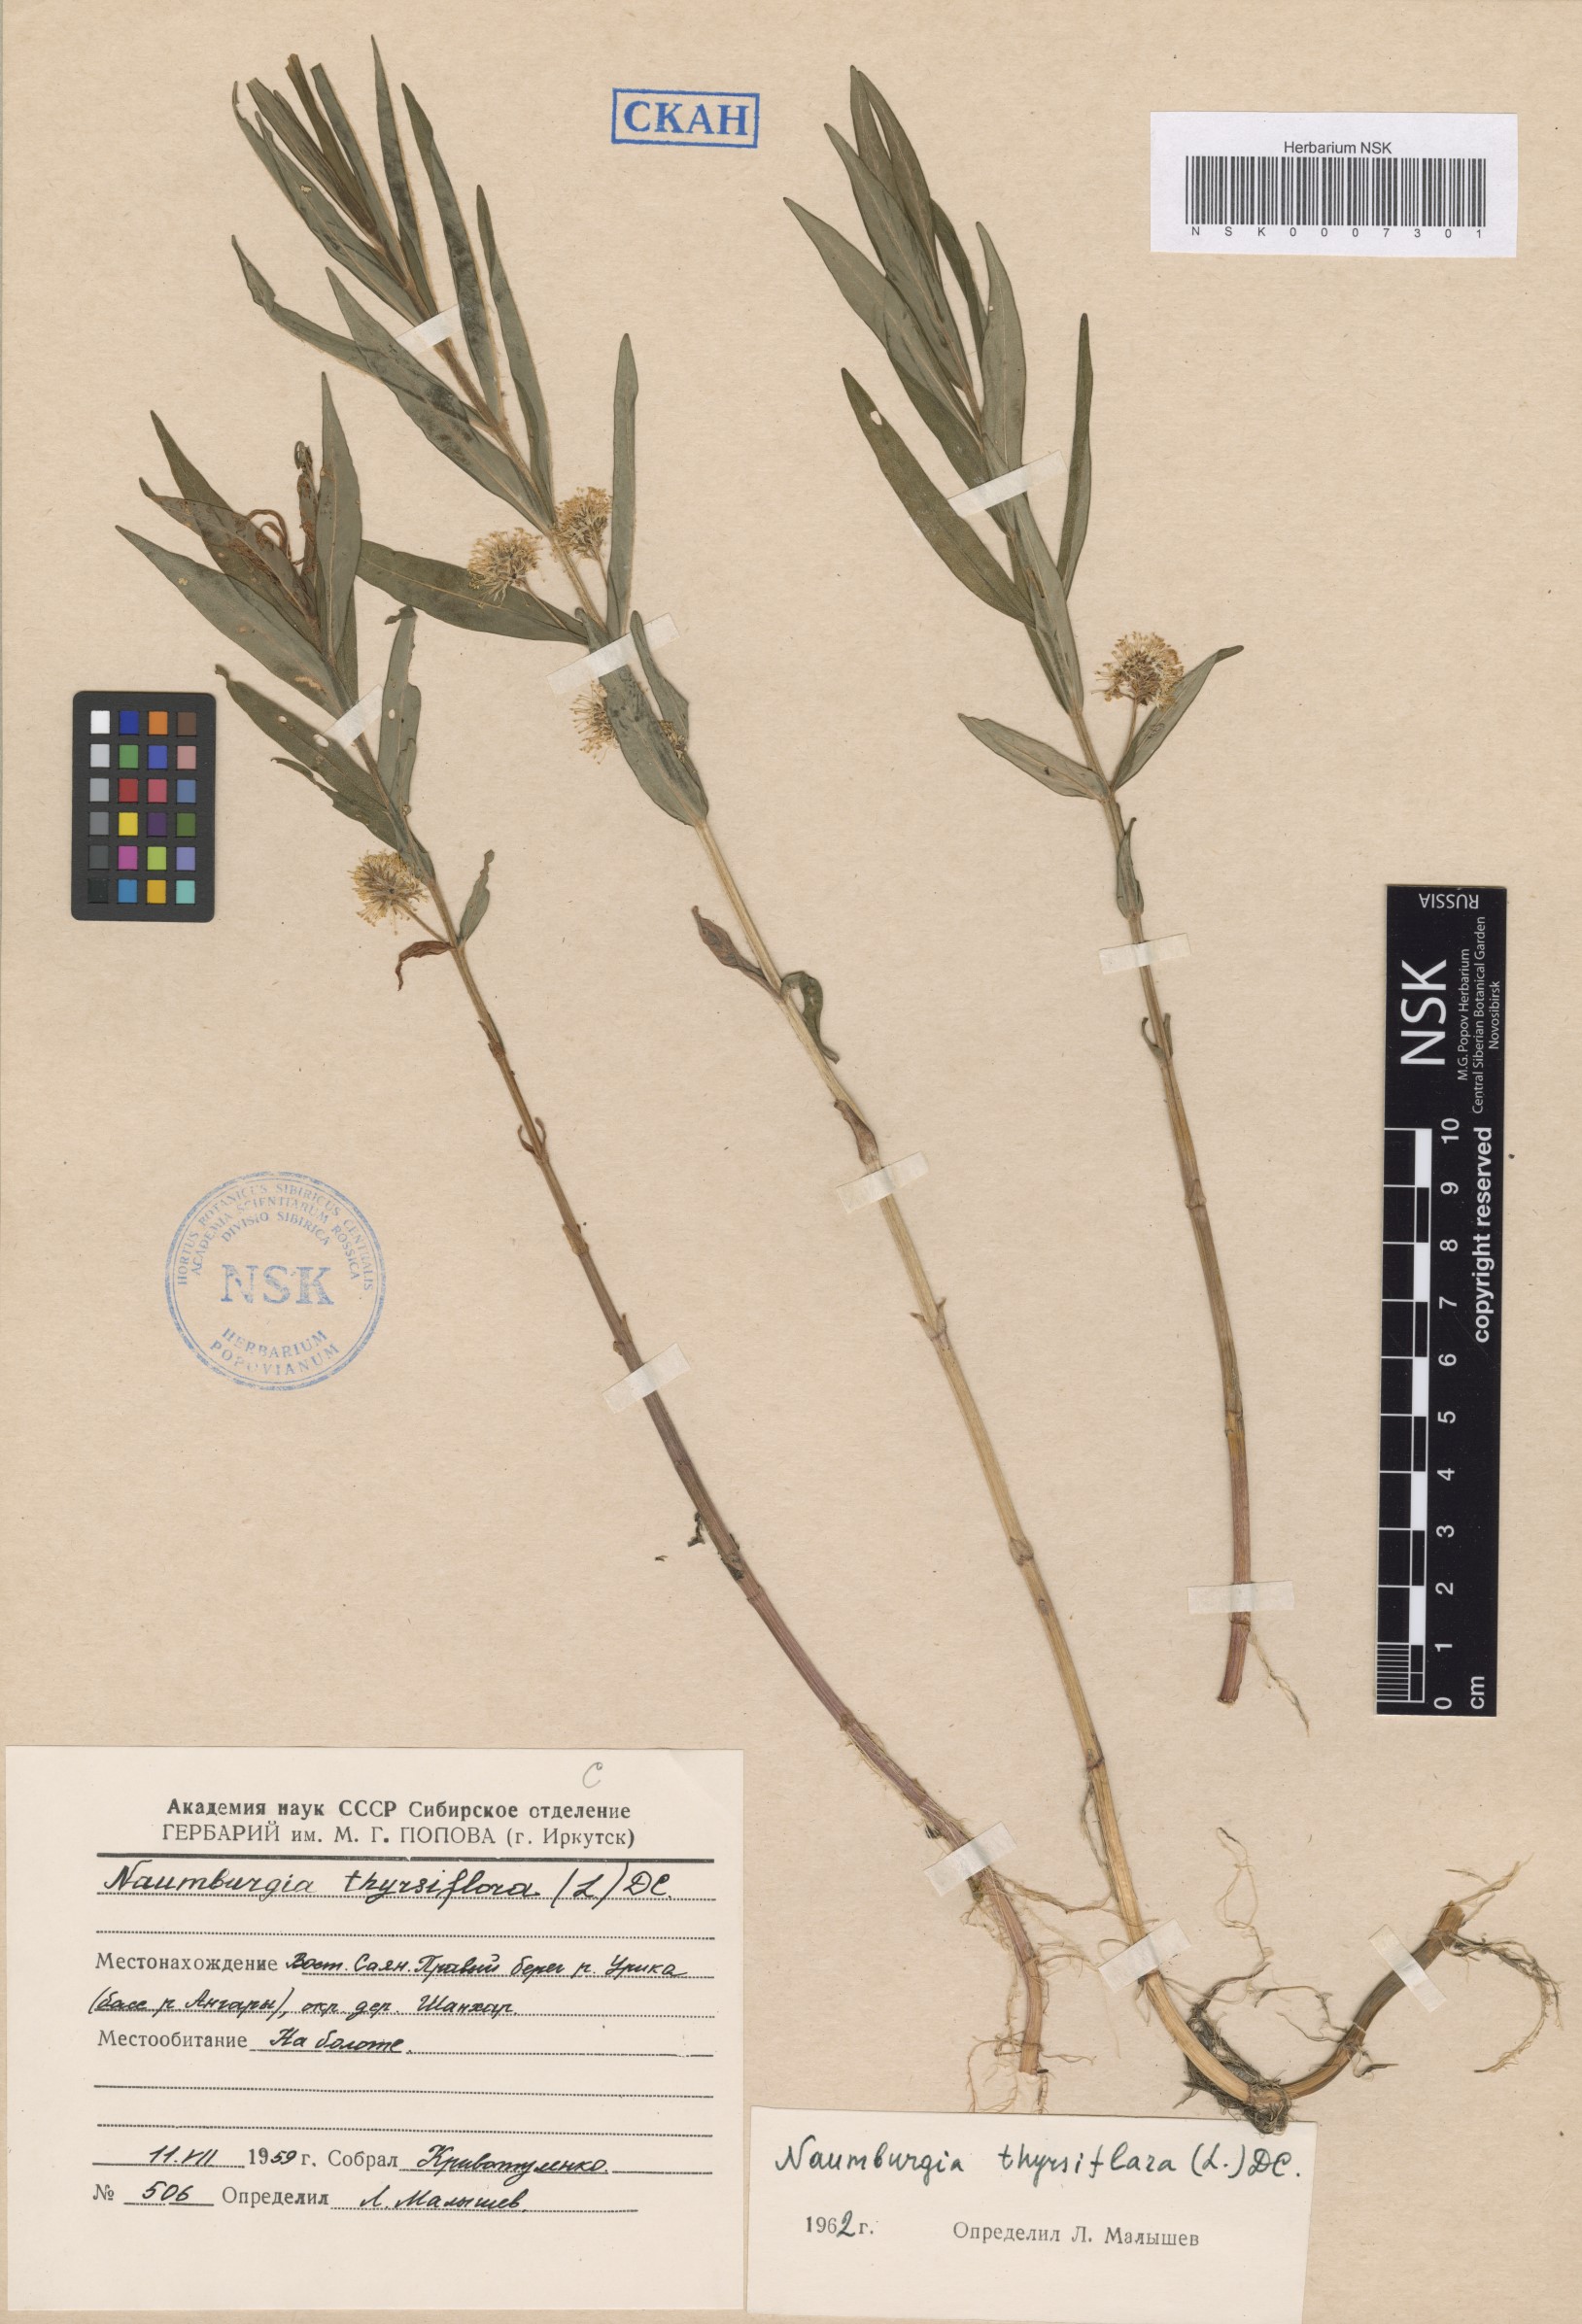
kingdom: Plantae
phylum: Tracheophyta
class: Magnoliopsida
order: Ericales
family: Primulaceae
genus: Lysimachia
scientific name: Lysimachia thyrsiflora
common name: Tufted loosestrife
